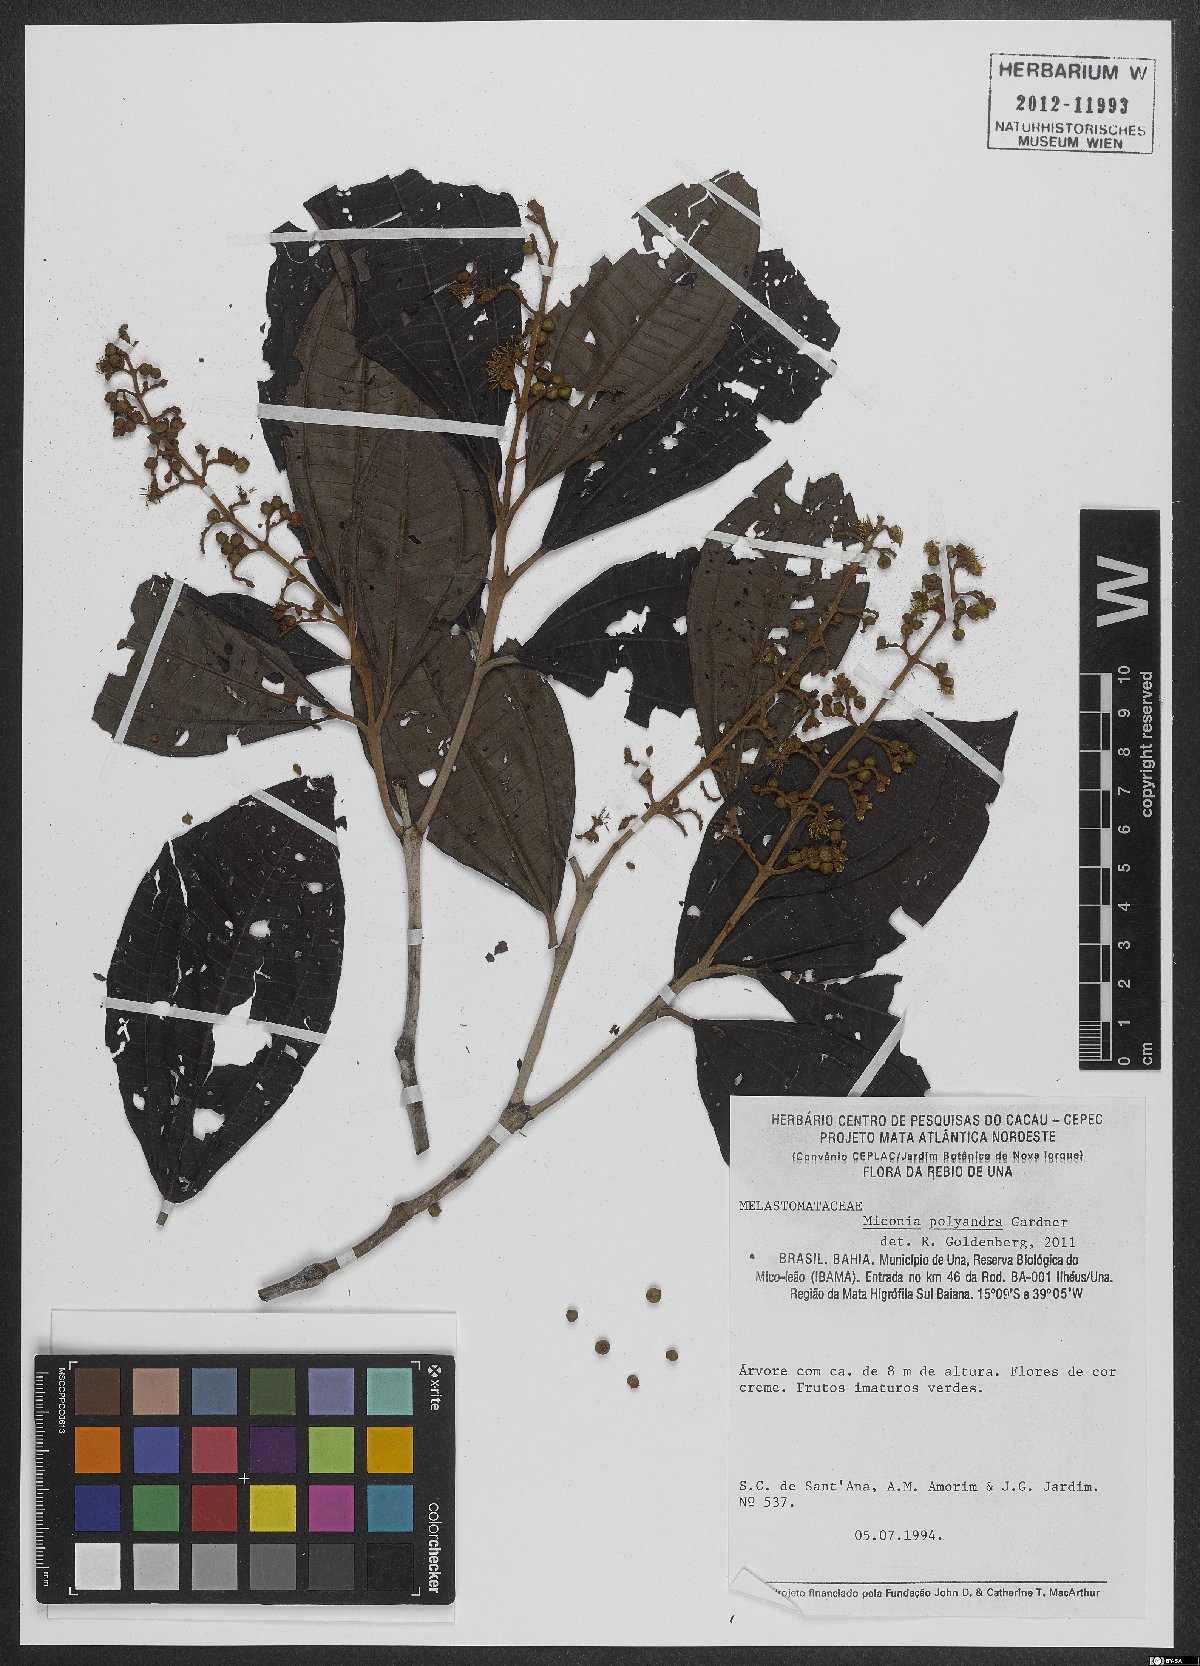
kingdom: Plantae
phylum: Tracheophyta
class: Magnoliopsida
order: Myrtales
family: Melastomataceae
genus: Miconia
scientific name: Miconia polyandra
